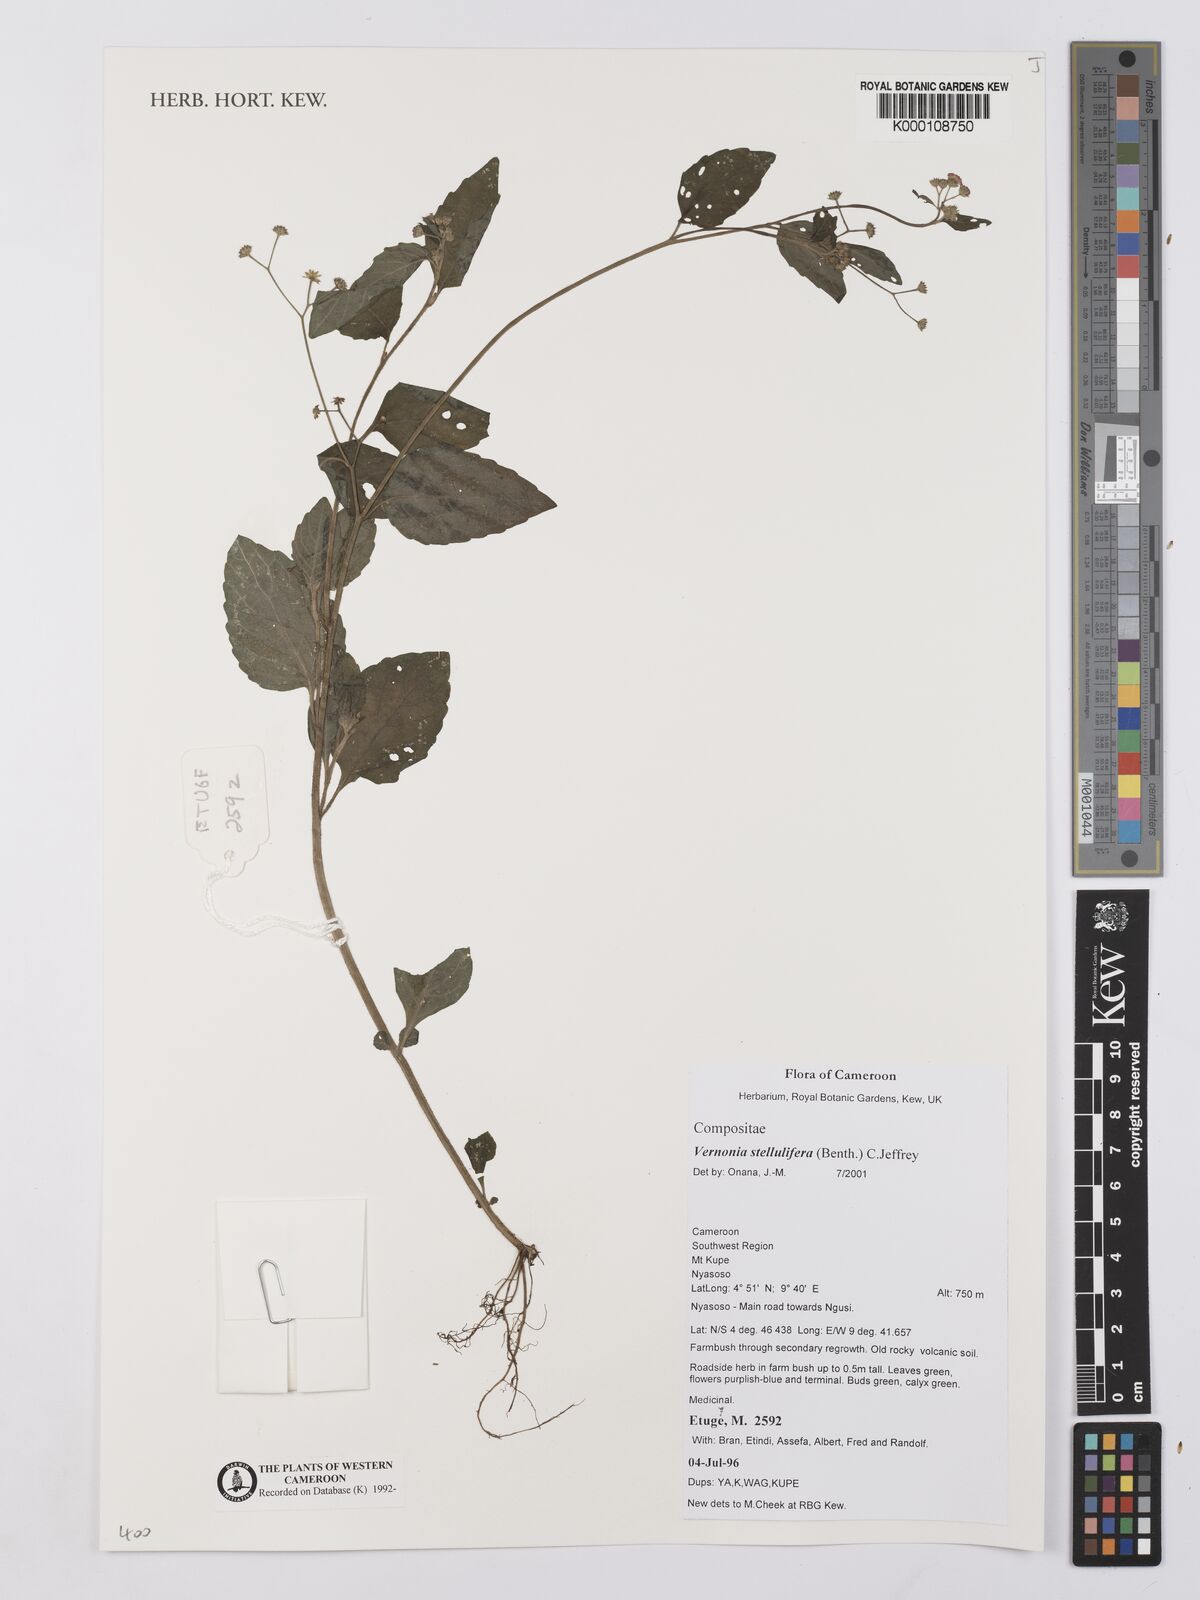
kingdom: Plantae
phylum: Tracheophyta
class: Magnoliopsida
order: Asterales
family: Asteraceae
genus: Cyanthillium
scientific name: Cyanthillium stelluliferum
